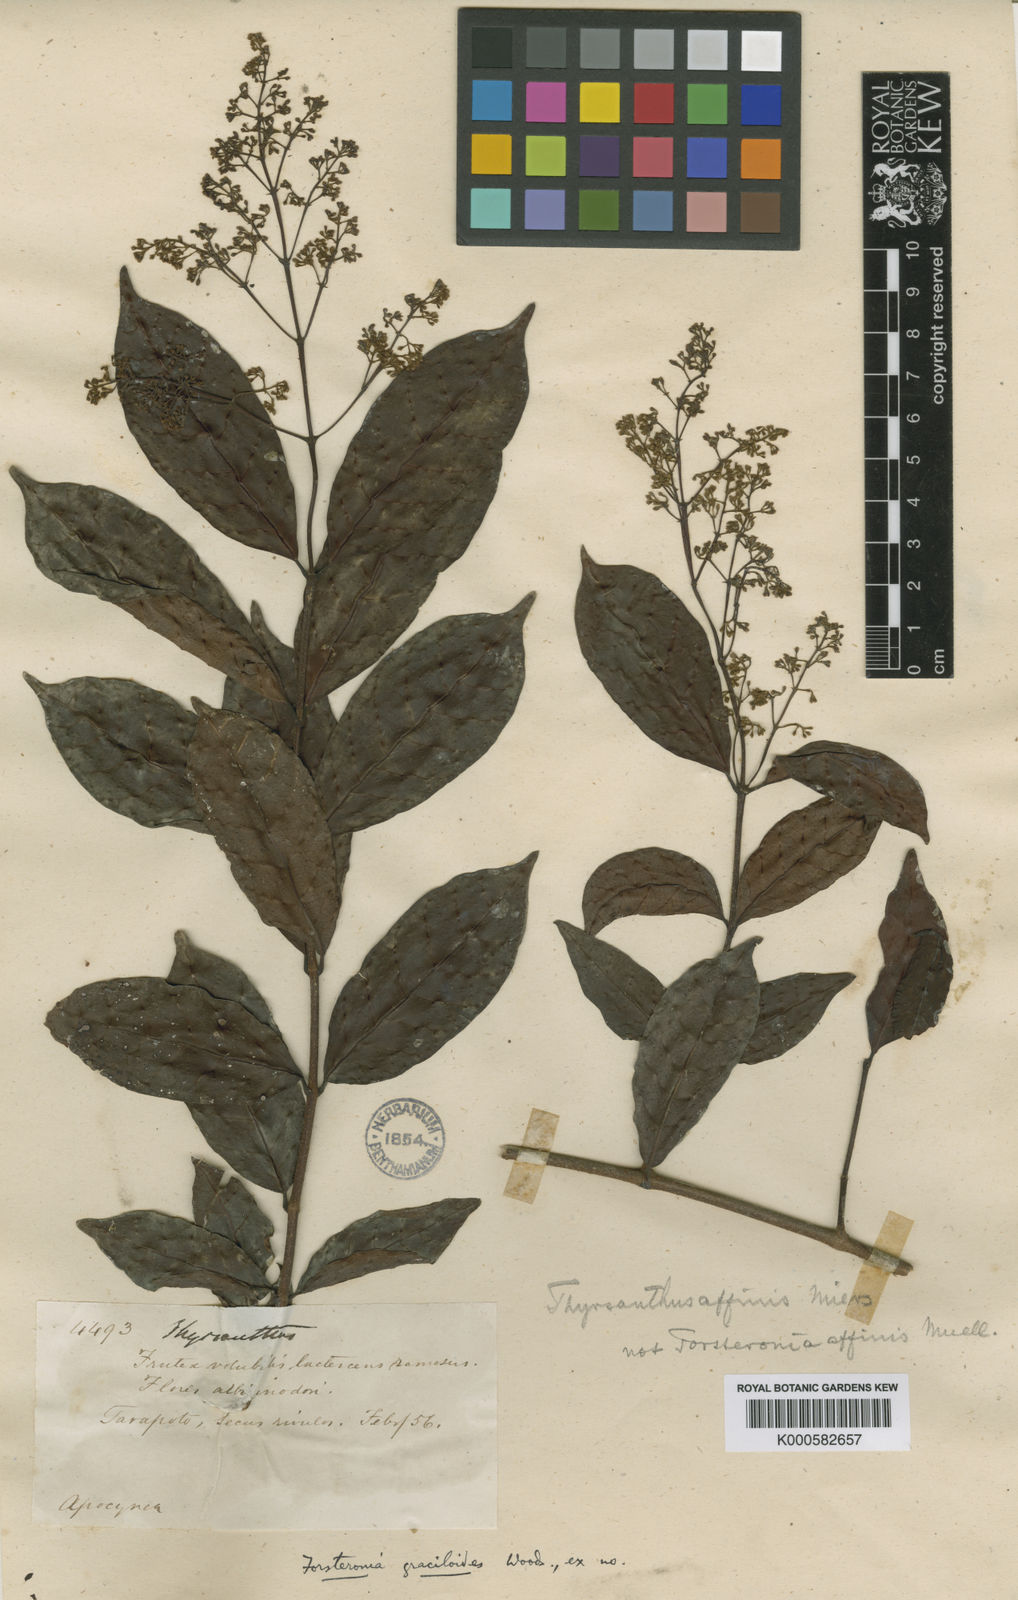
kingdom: Plantae
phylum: Tracheophyta
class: Magnoliopsida
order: Gentianales
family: Apocynaceae
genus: Forsteronia
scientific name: Forsteronia graciloides
